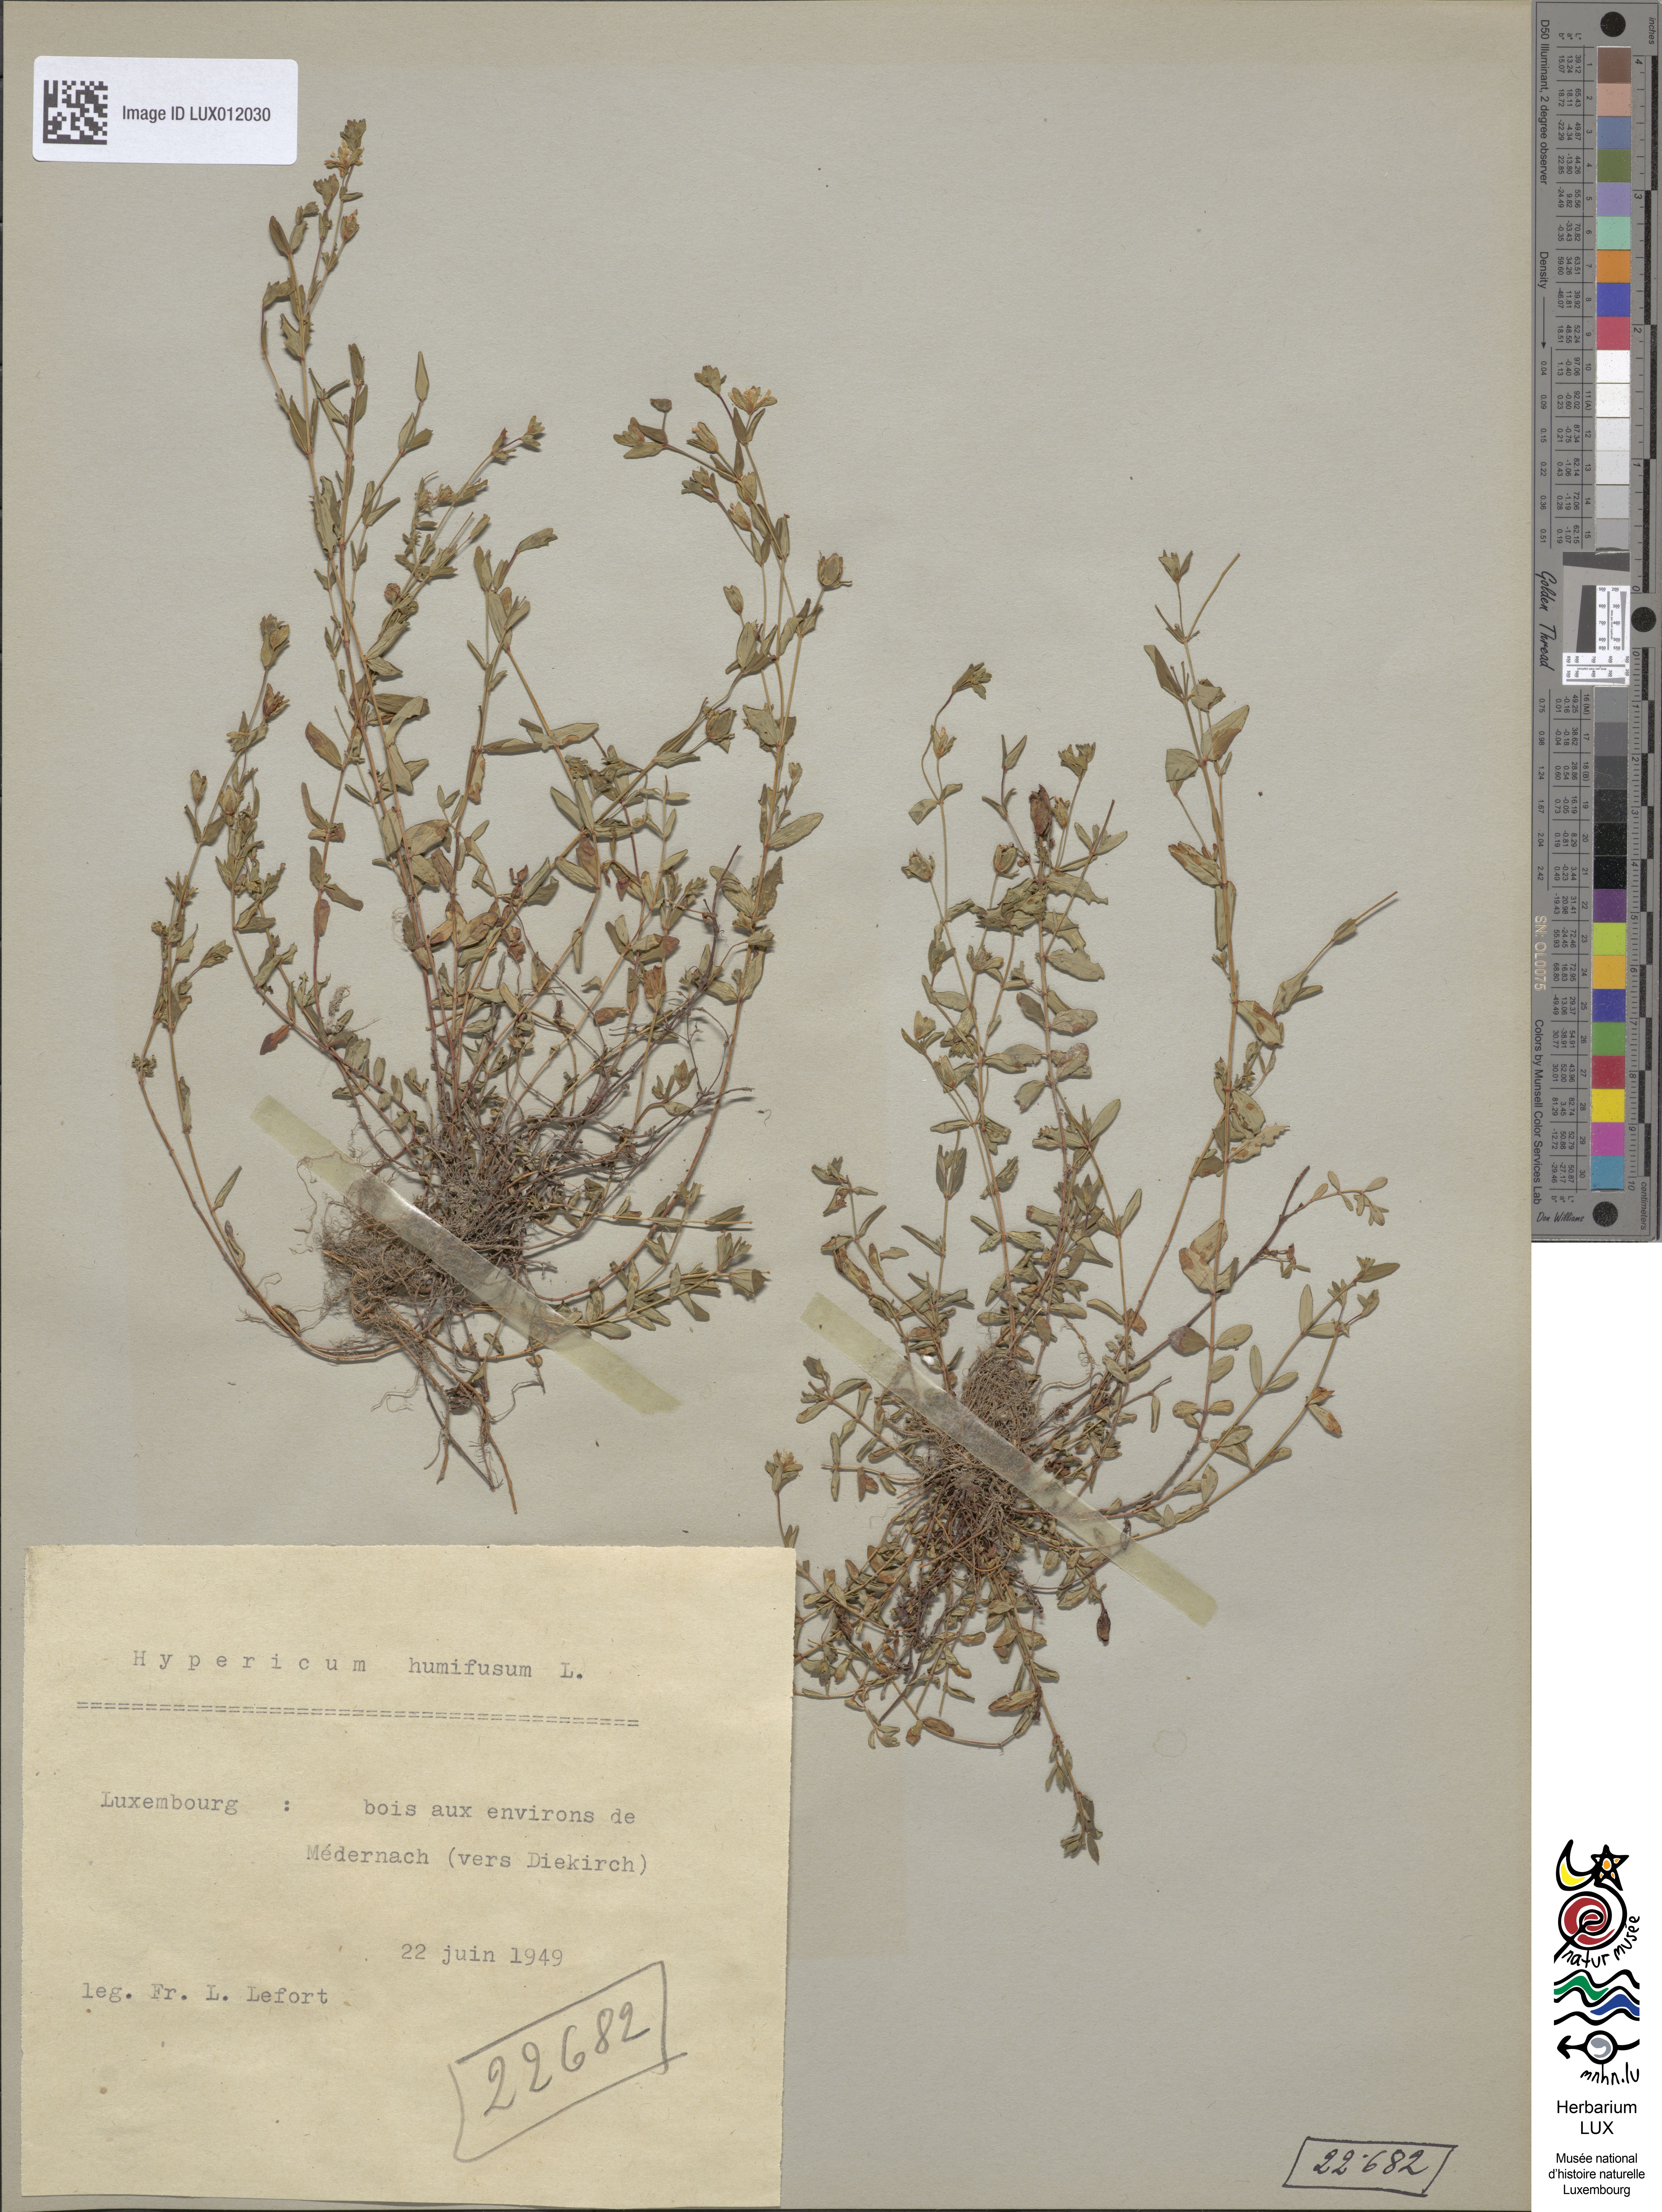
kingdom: Plantae
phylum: Tracheophyta
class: Magnoliopsida
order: Malpighiales
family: Hypericaceae
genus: Hypericum
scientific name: Hypericum humifusum
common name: Trailing st. john's-wort
